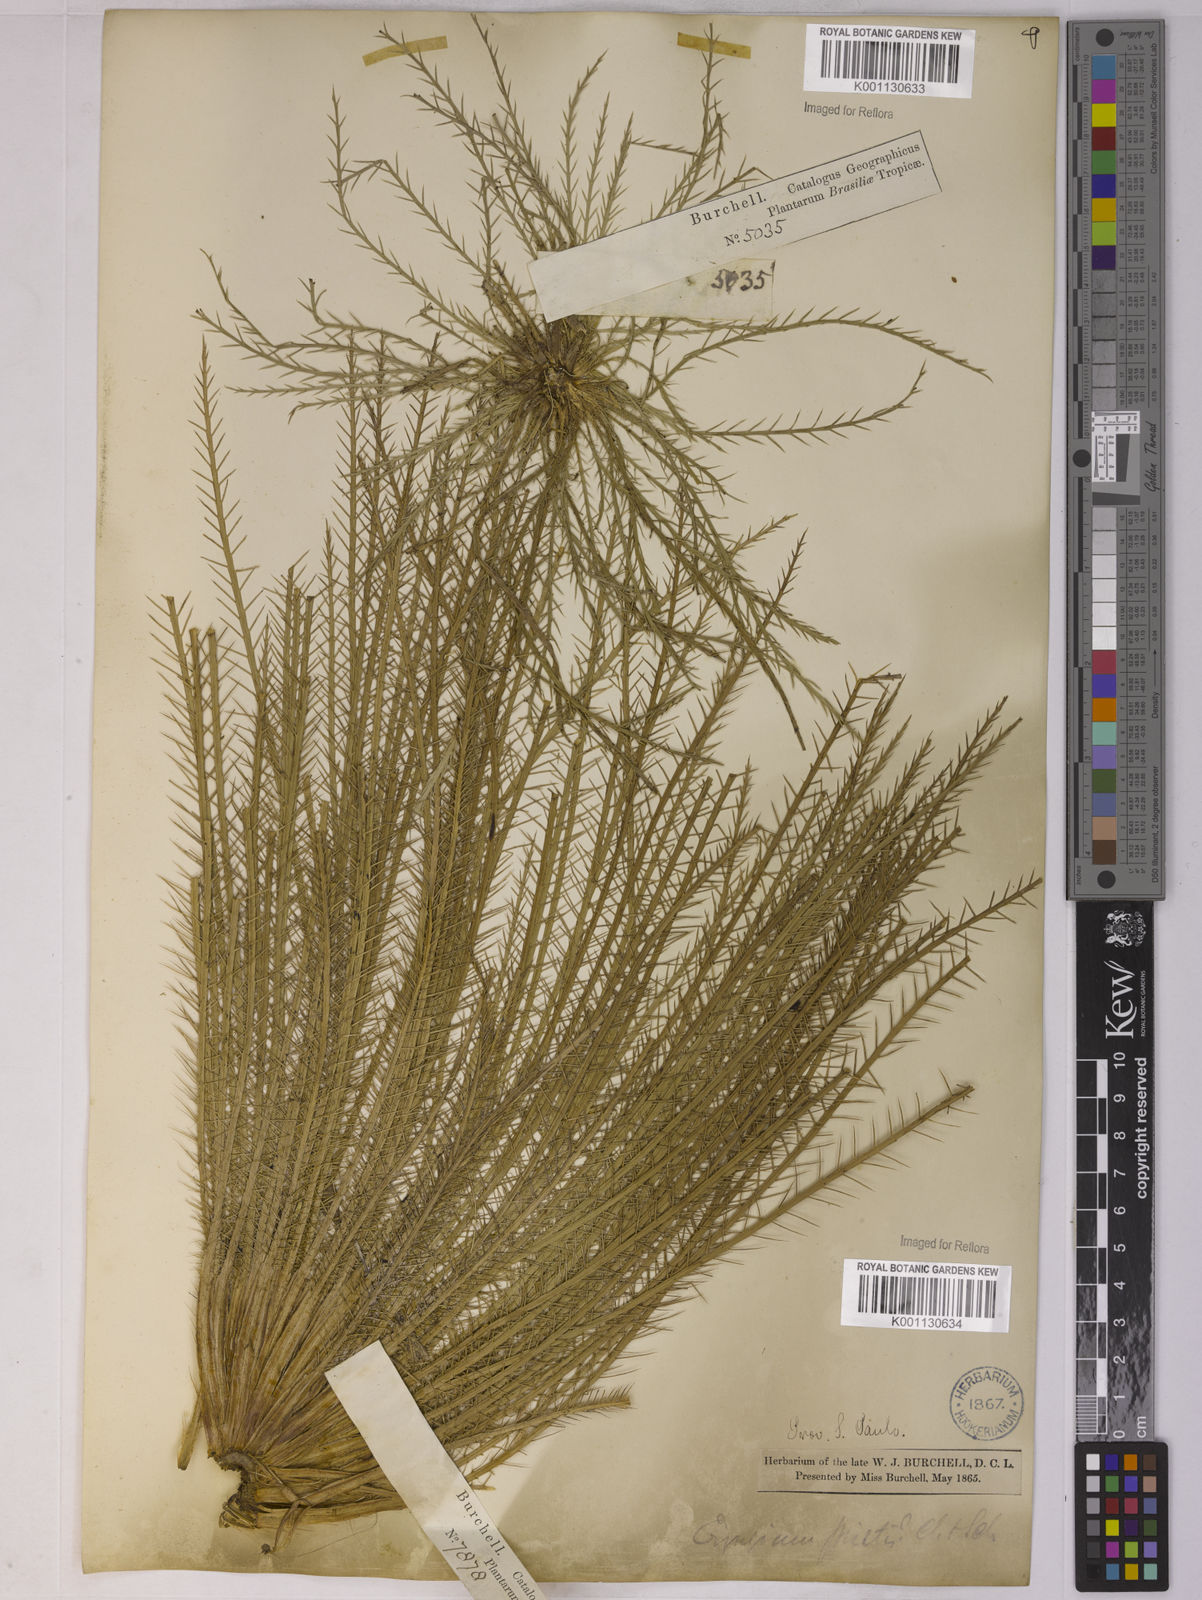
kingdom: Plantae
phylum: Tracheophyta
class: Magnoliopsida
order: Apiales
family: Apiaceae
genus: Eryngium
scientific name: Eryngium pristis
